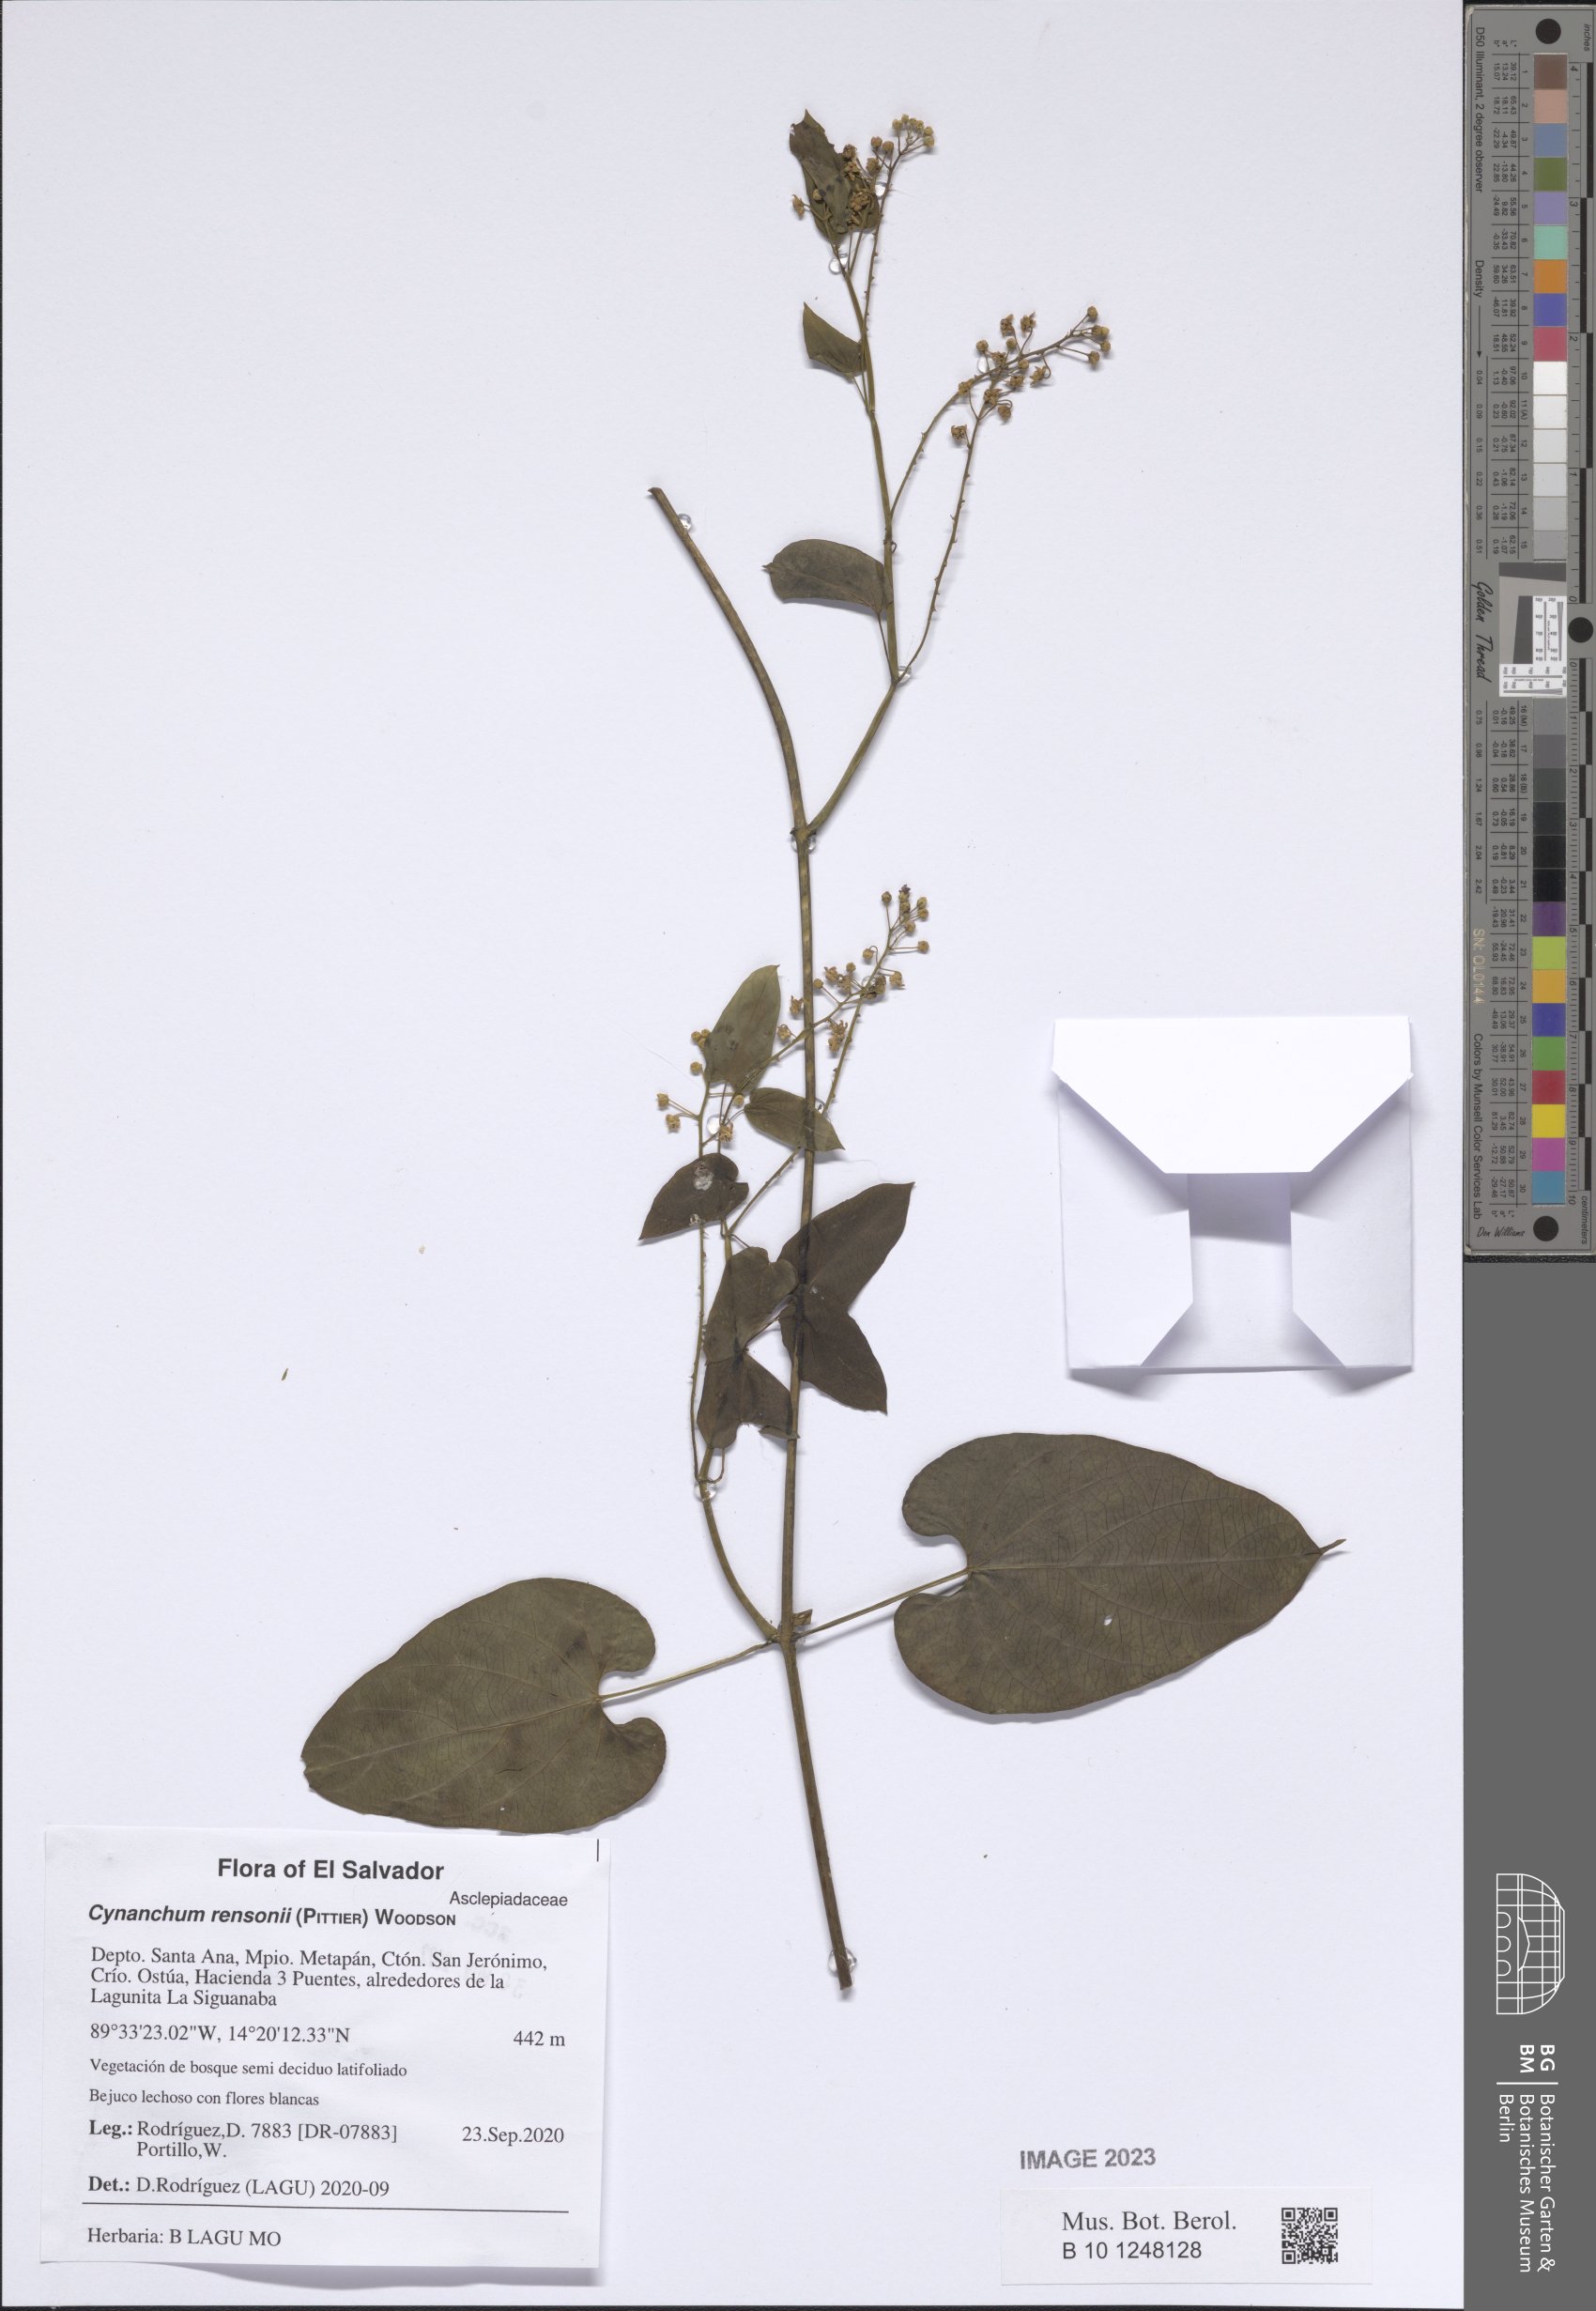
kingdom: Plantae
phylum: Tracheophyta
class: Magnoliopsida
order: Gentianales
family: Apocynaceae
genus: Cynanchum
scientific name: Cynanchum rensonii
